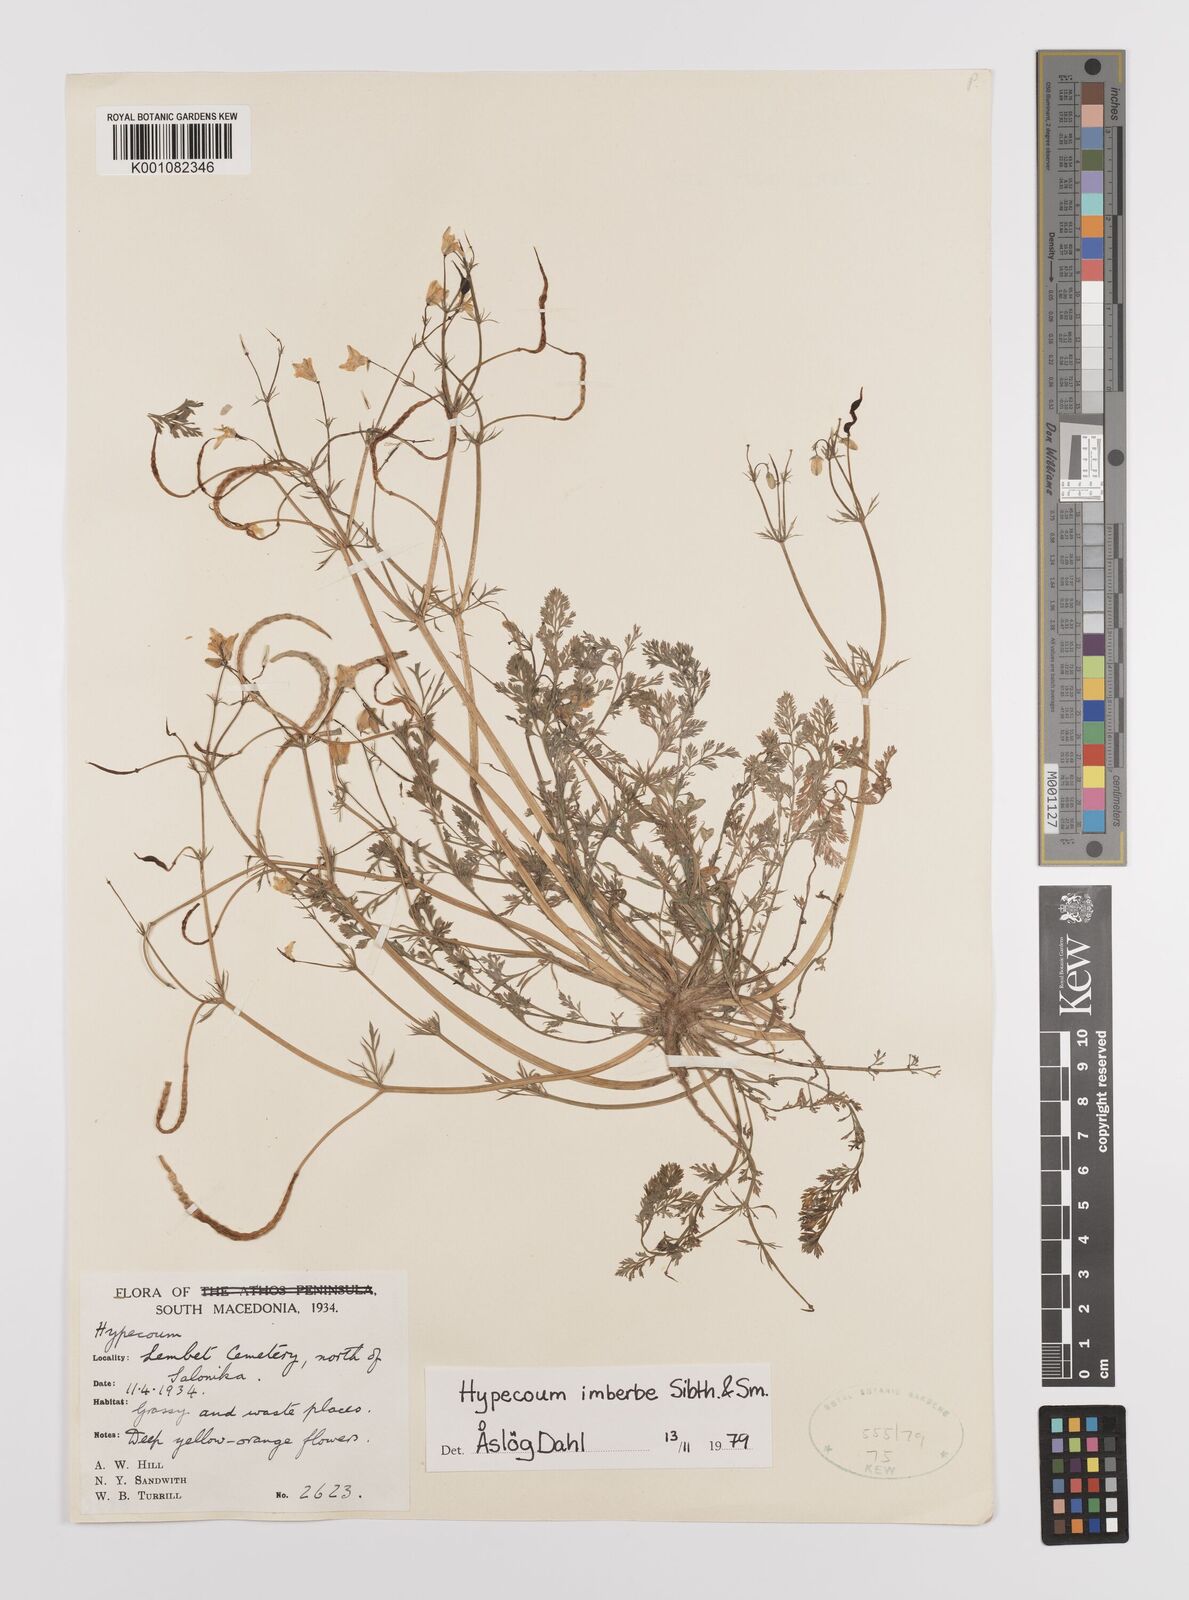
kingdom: Plantae
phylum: Tracheophyta
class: Magnoliopsida
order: Ranunculales
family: Papaveraceae
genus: Hypecoum
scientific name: Hypecoum imberbe
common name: Sicklefruit hypecoum
